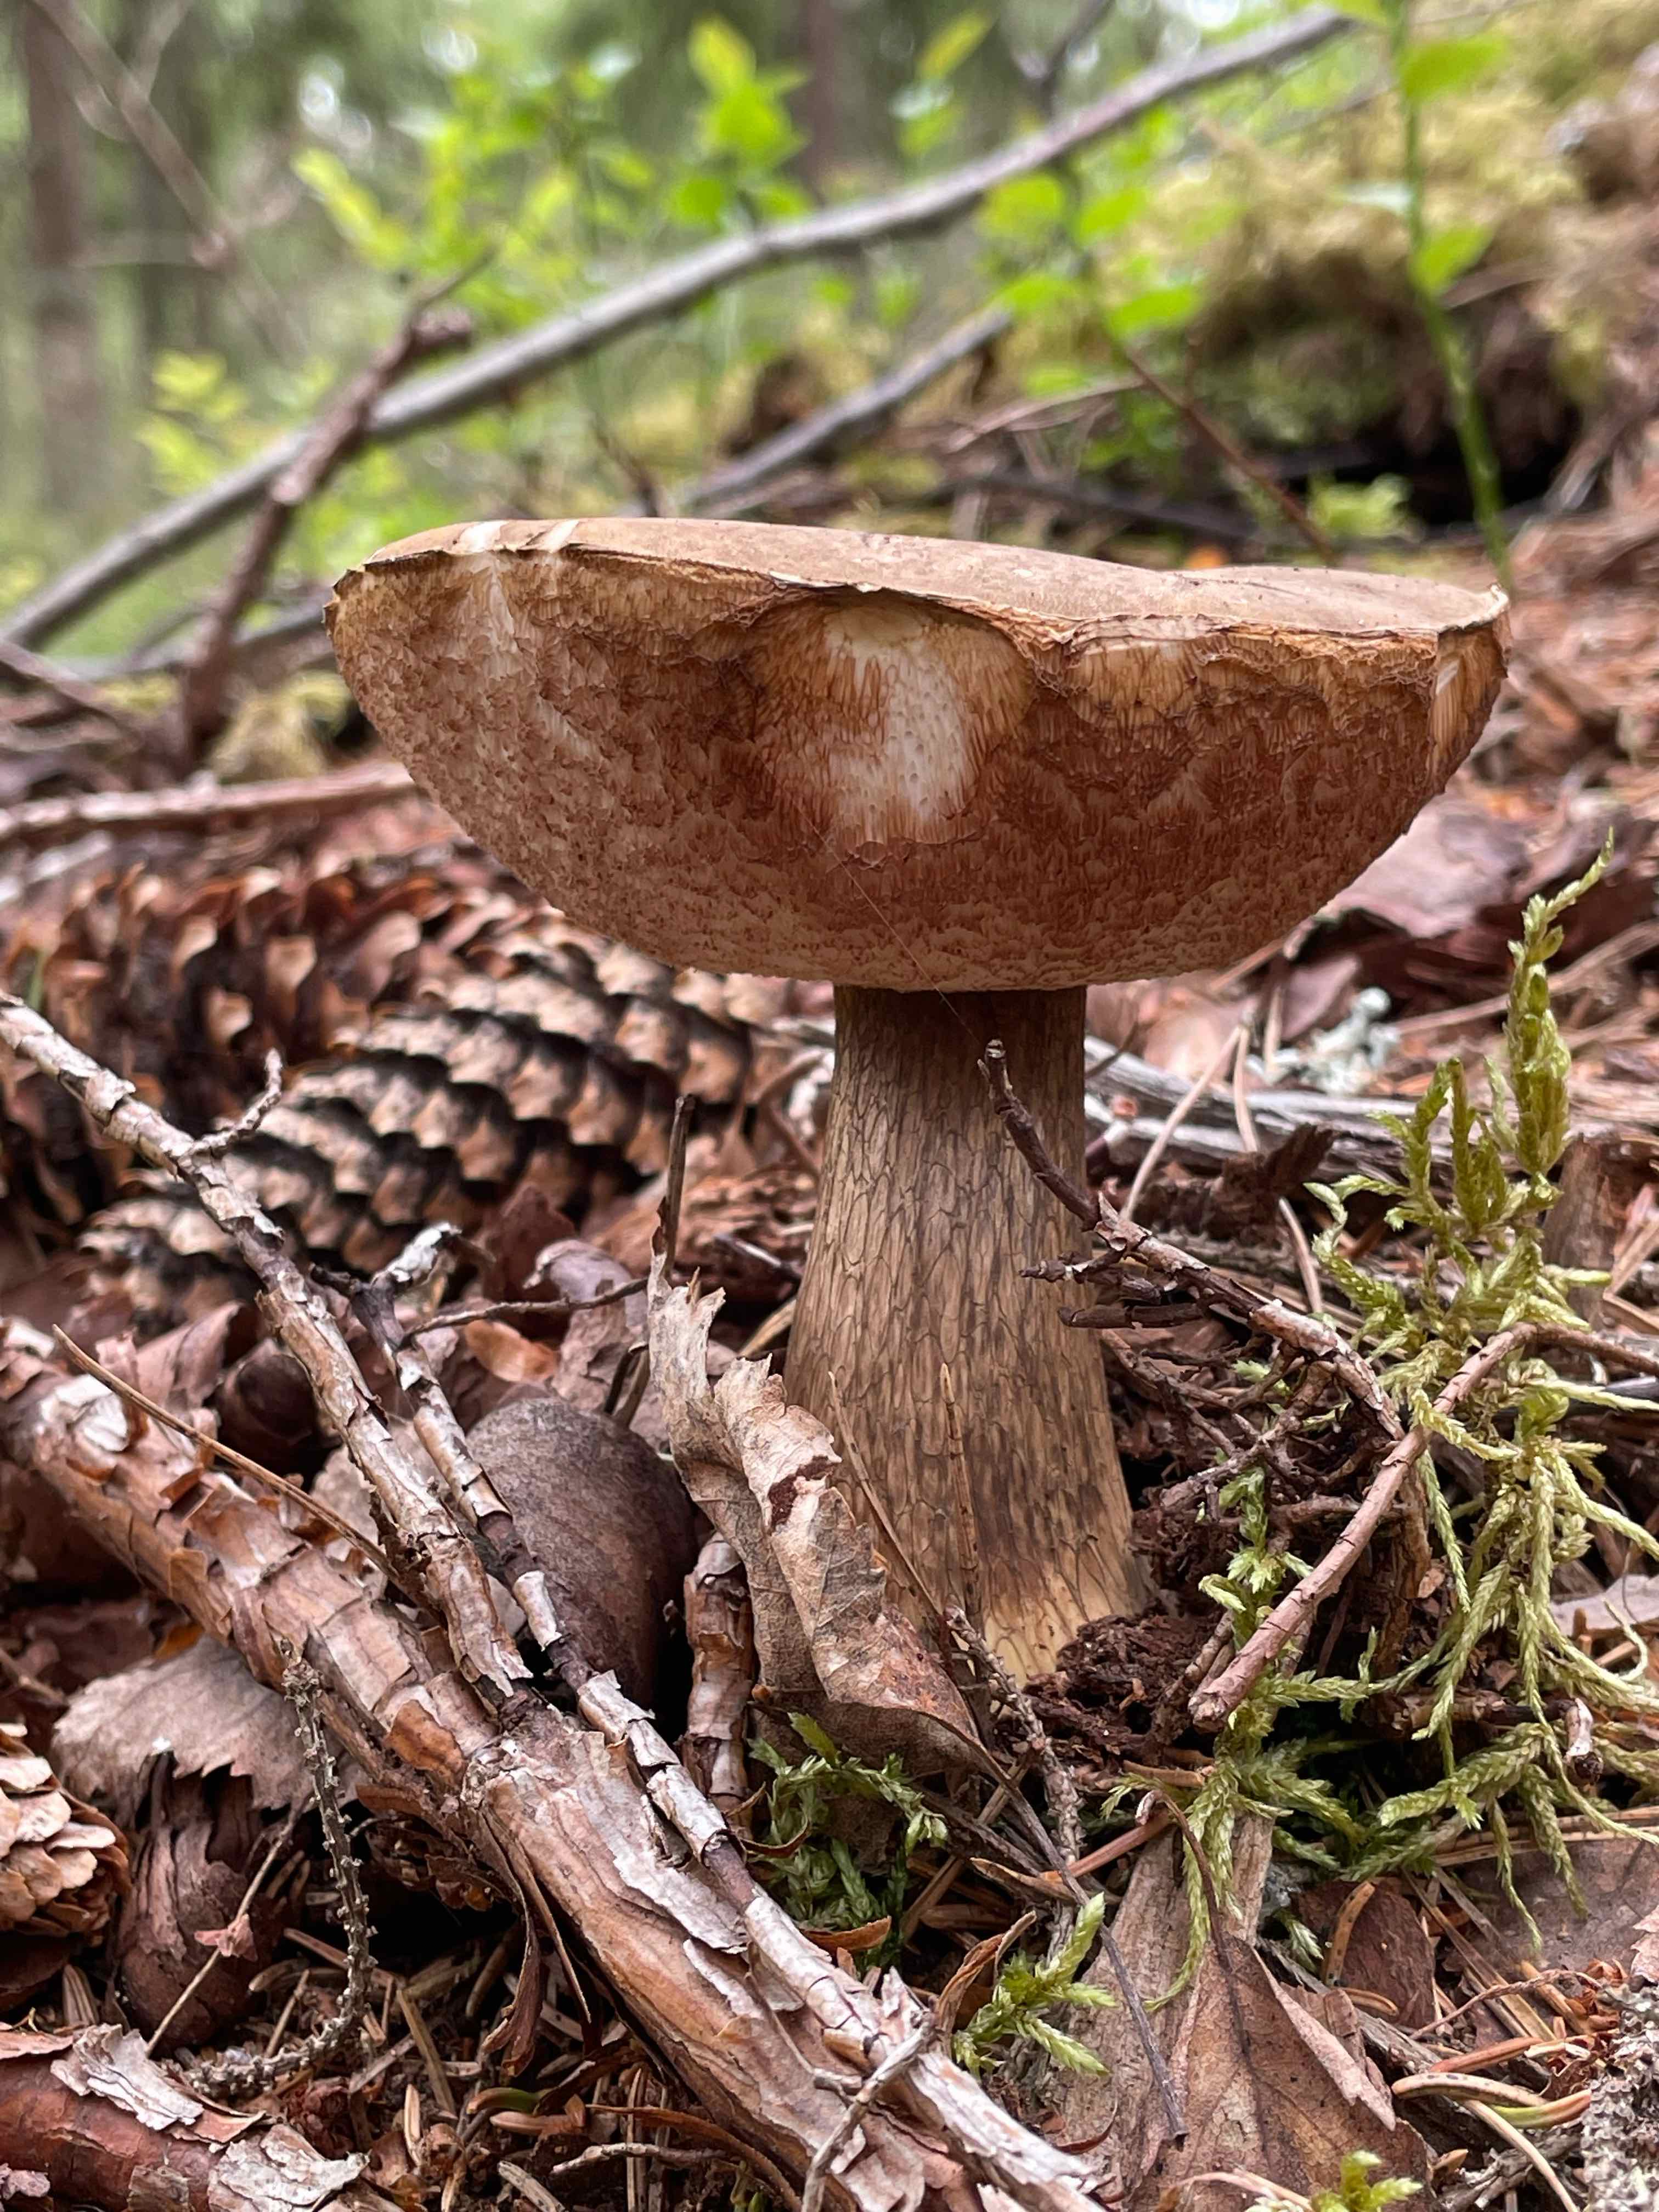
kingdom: Fungi
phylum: Basidiomycota
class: Agaricomycetes
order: Boletales
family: Boletaceae
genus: Tylopilus
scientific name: Tylopilus felleus
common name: galderørhat
